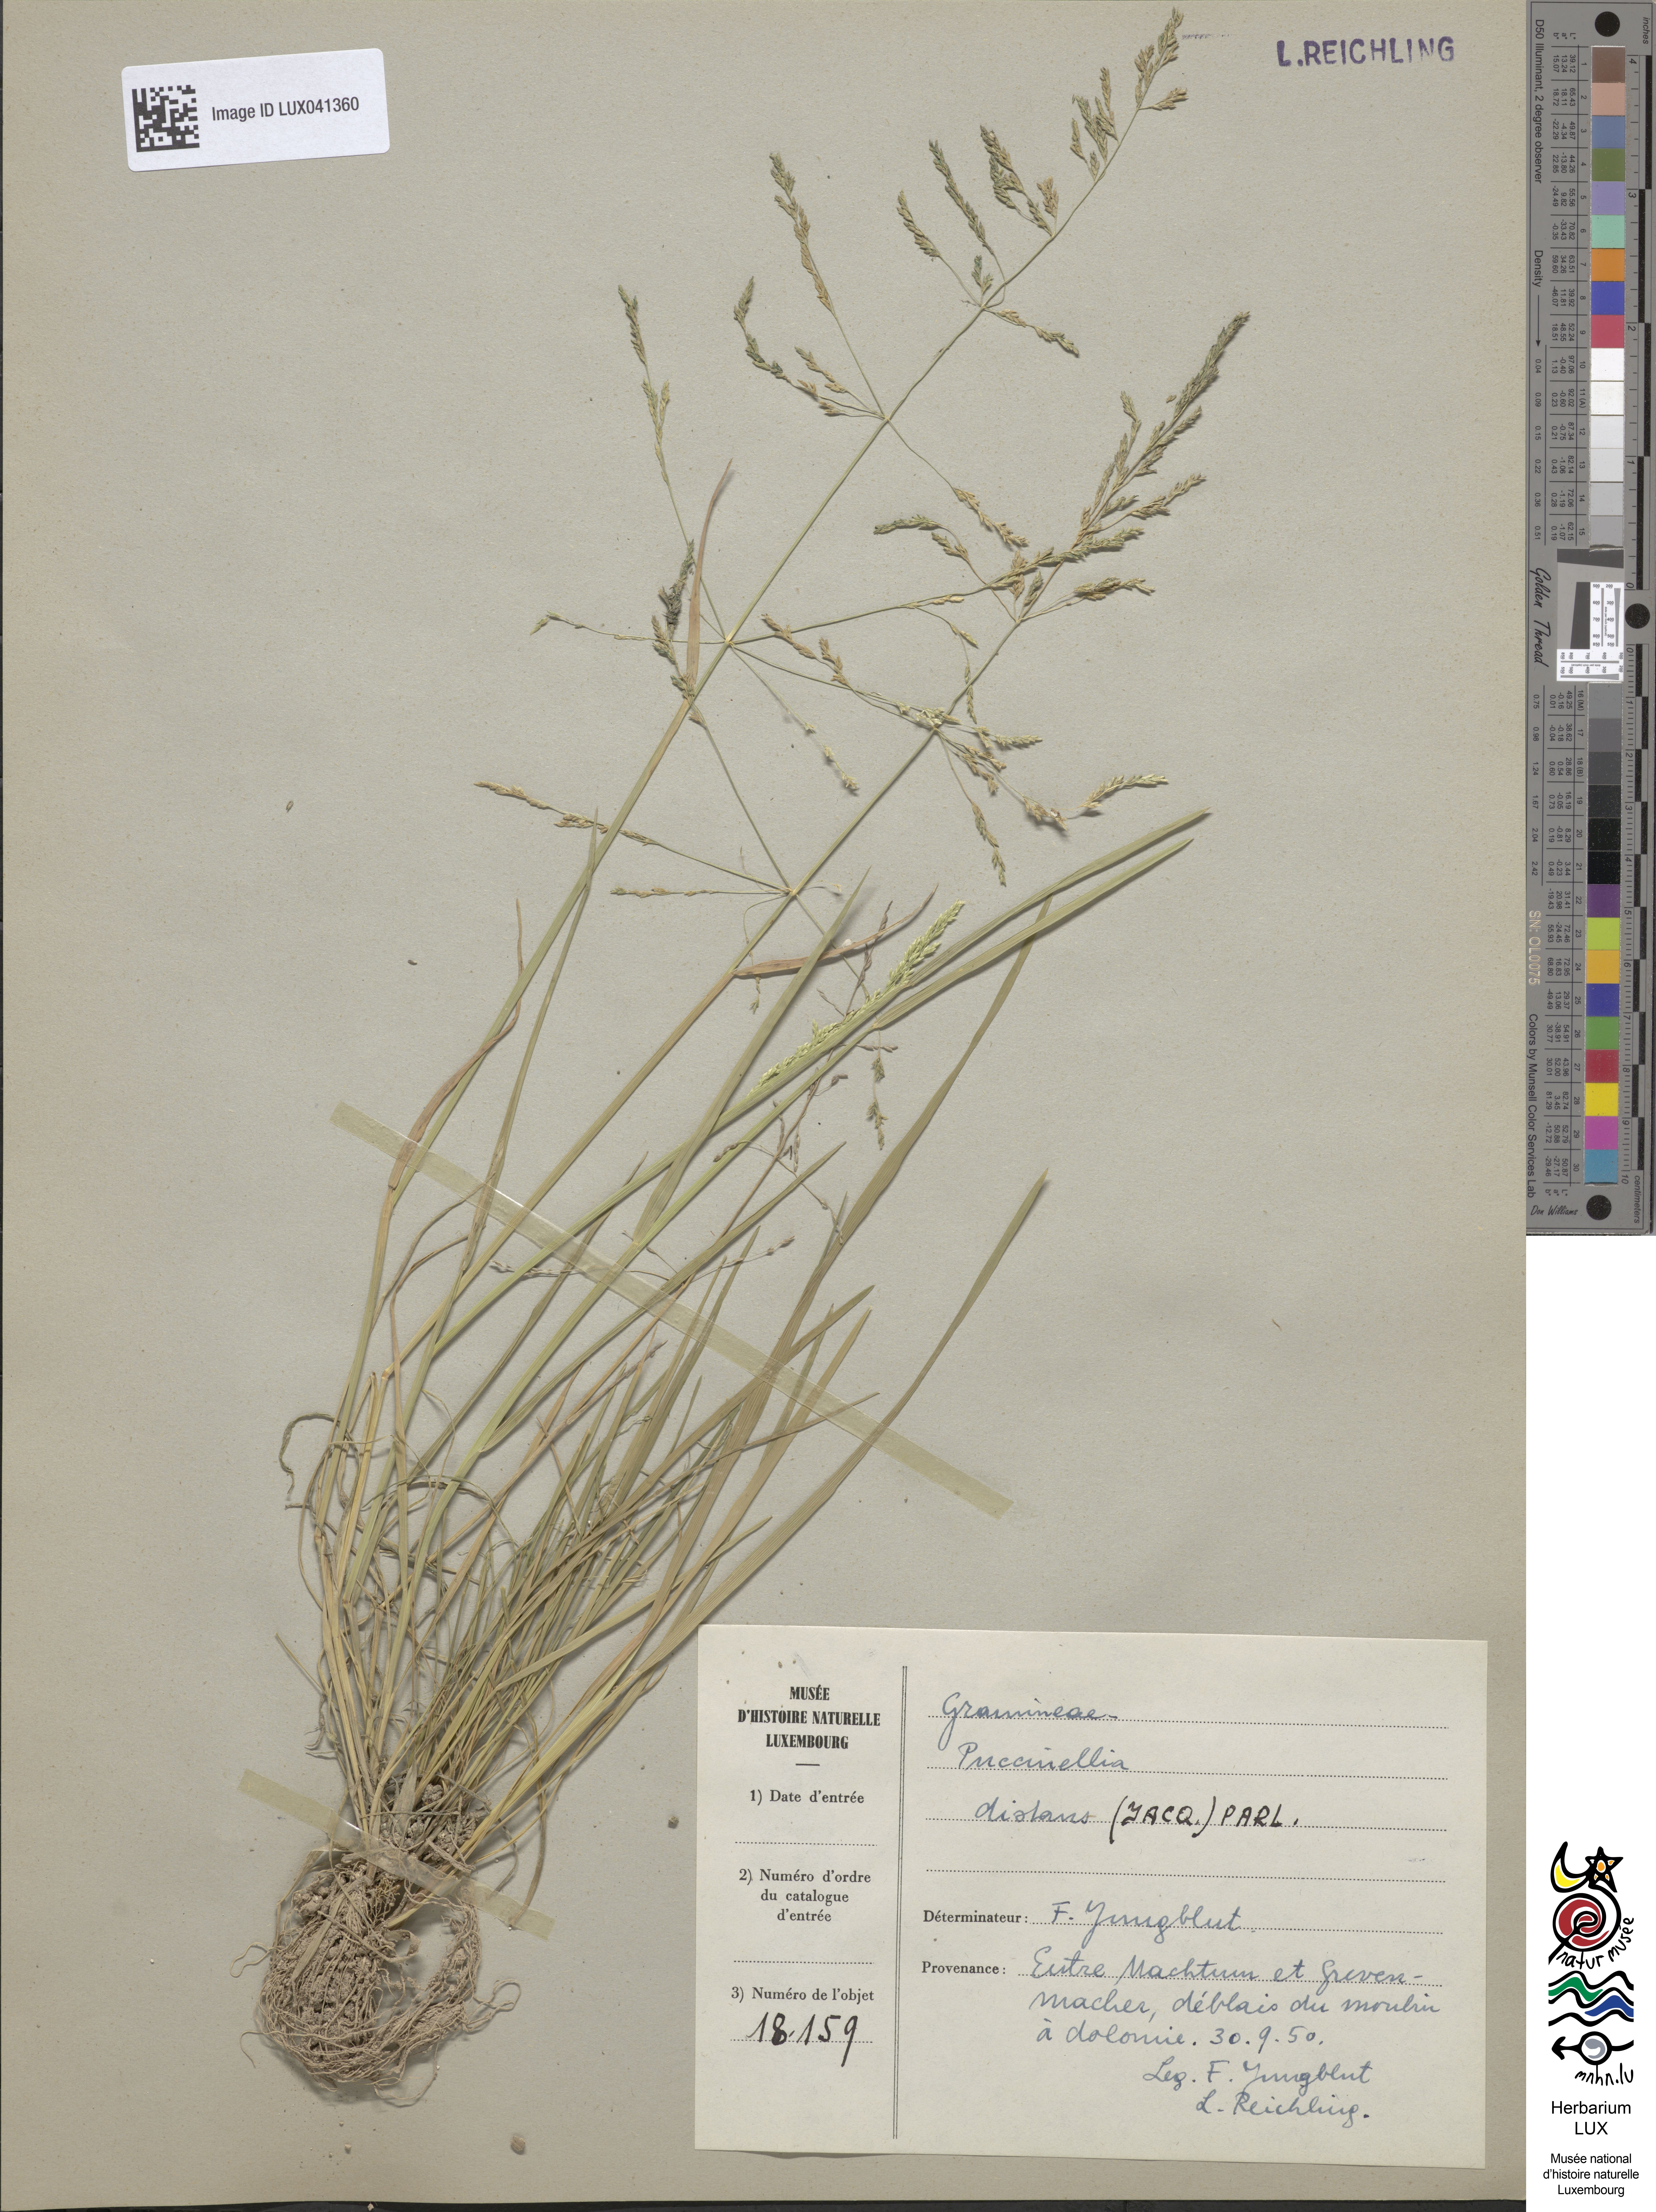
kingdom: Plantae
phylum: Tracheophyta
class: Liliopsida
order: Poales
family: Poaceae
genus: Puccinellia
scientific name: Puccinellia distans
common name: Weeping alkaligrass
